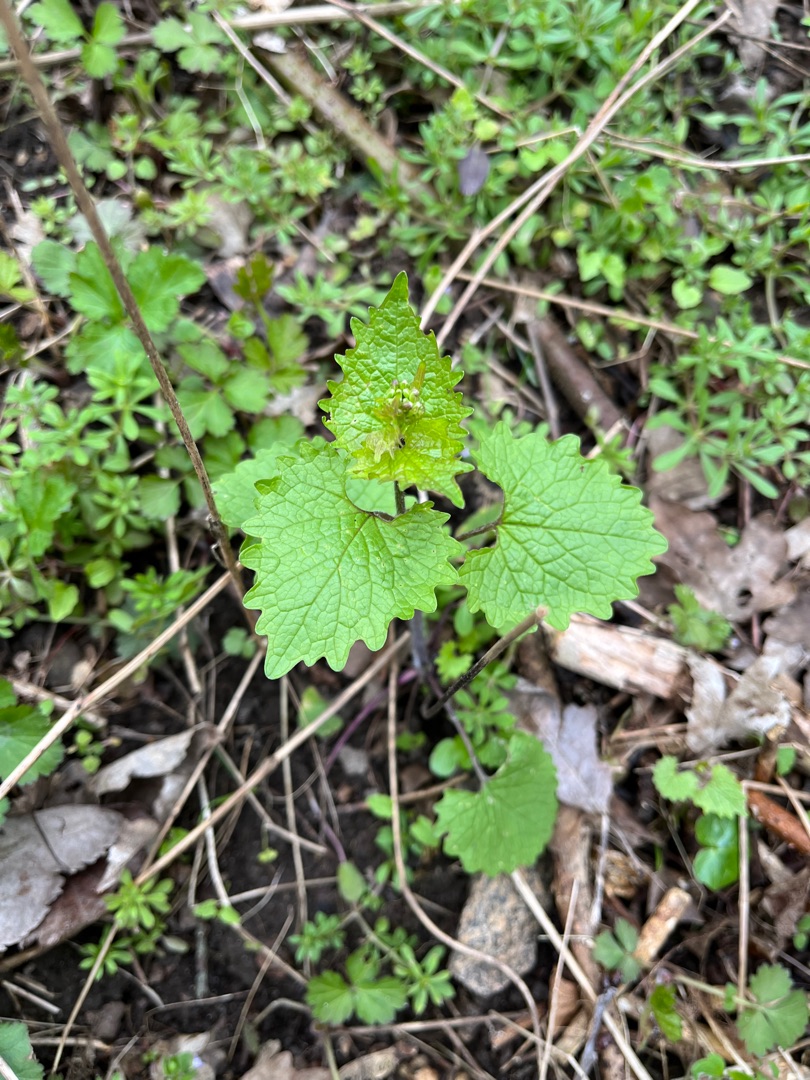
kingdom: Plantae
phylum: Tracheophyta
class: Magnoliopsida
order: Brassicales
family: Brassicaceae
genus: Alliaria
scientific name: Alliaria petiolata
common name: Løgkarse
